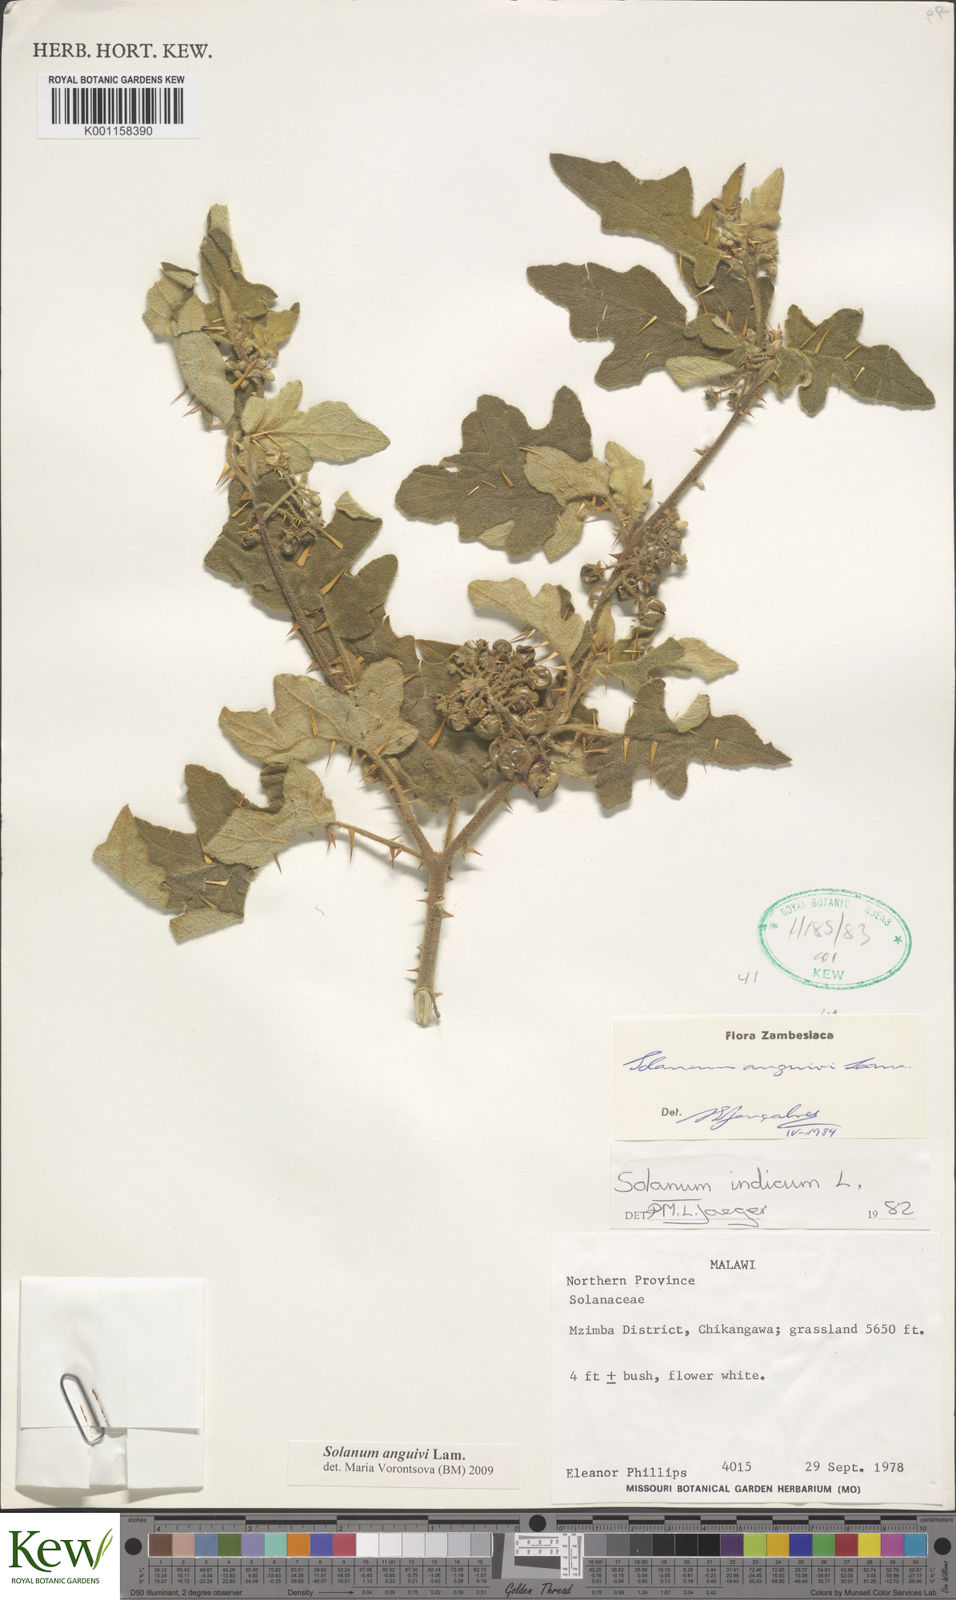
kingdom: Plantae
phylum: Tracheophyta
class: Magnoliopsida
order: Solanales
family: Solanaceae
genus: Solanum
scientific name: Solanum anguivi
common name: Forest bitterberry
